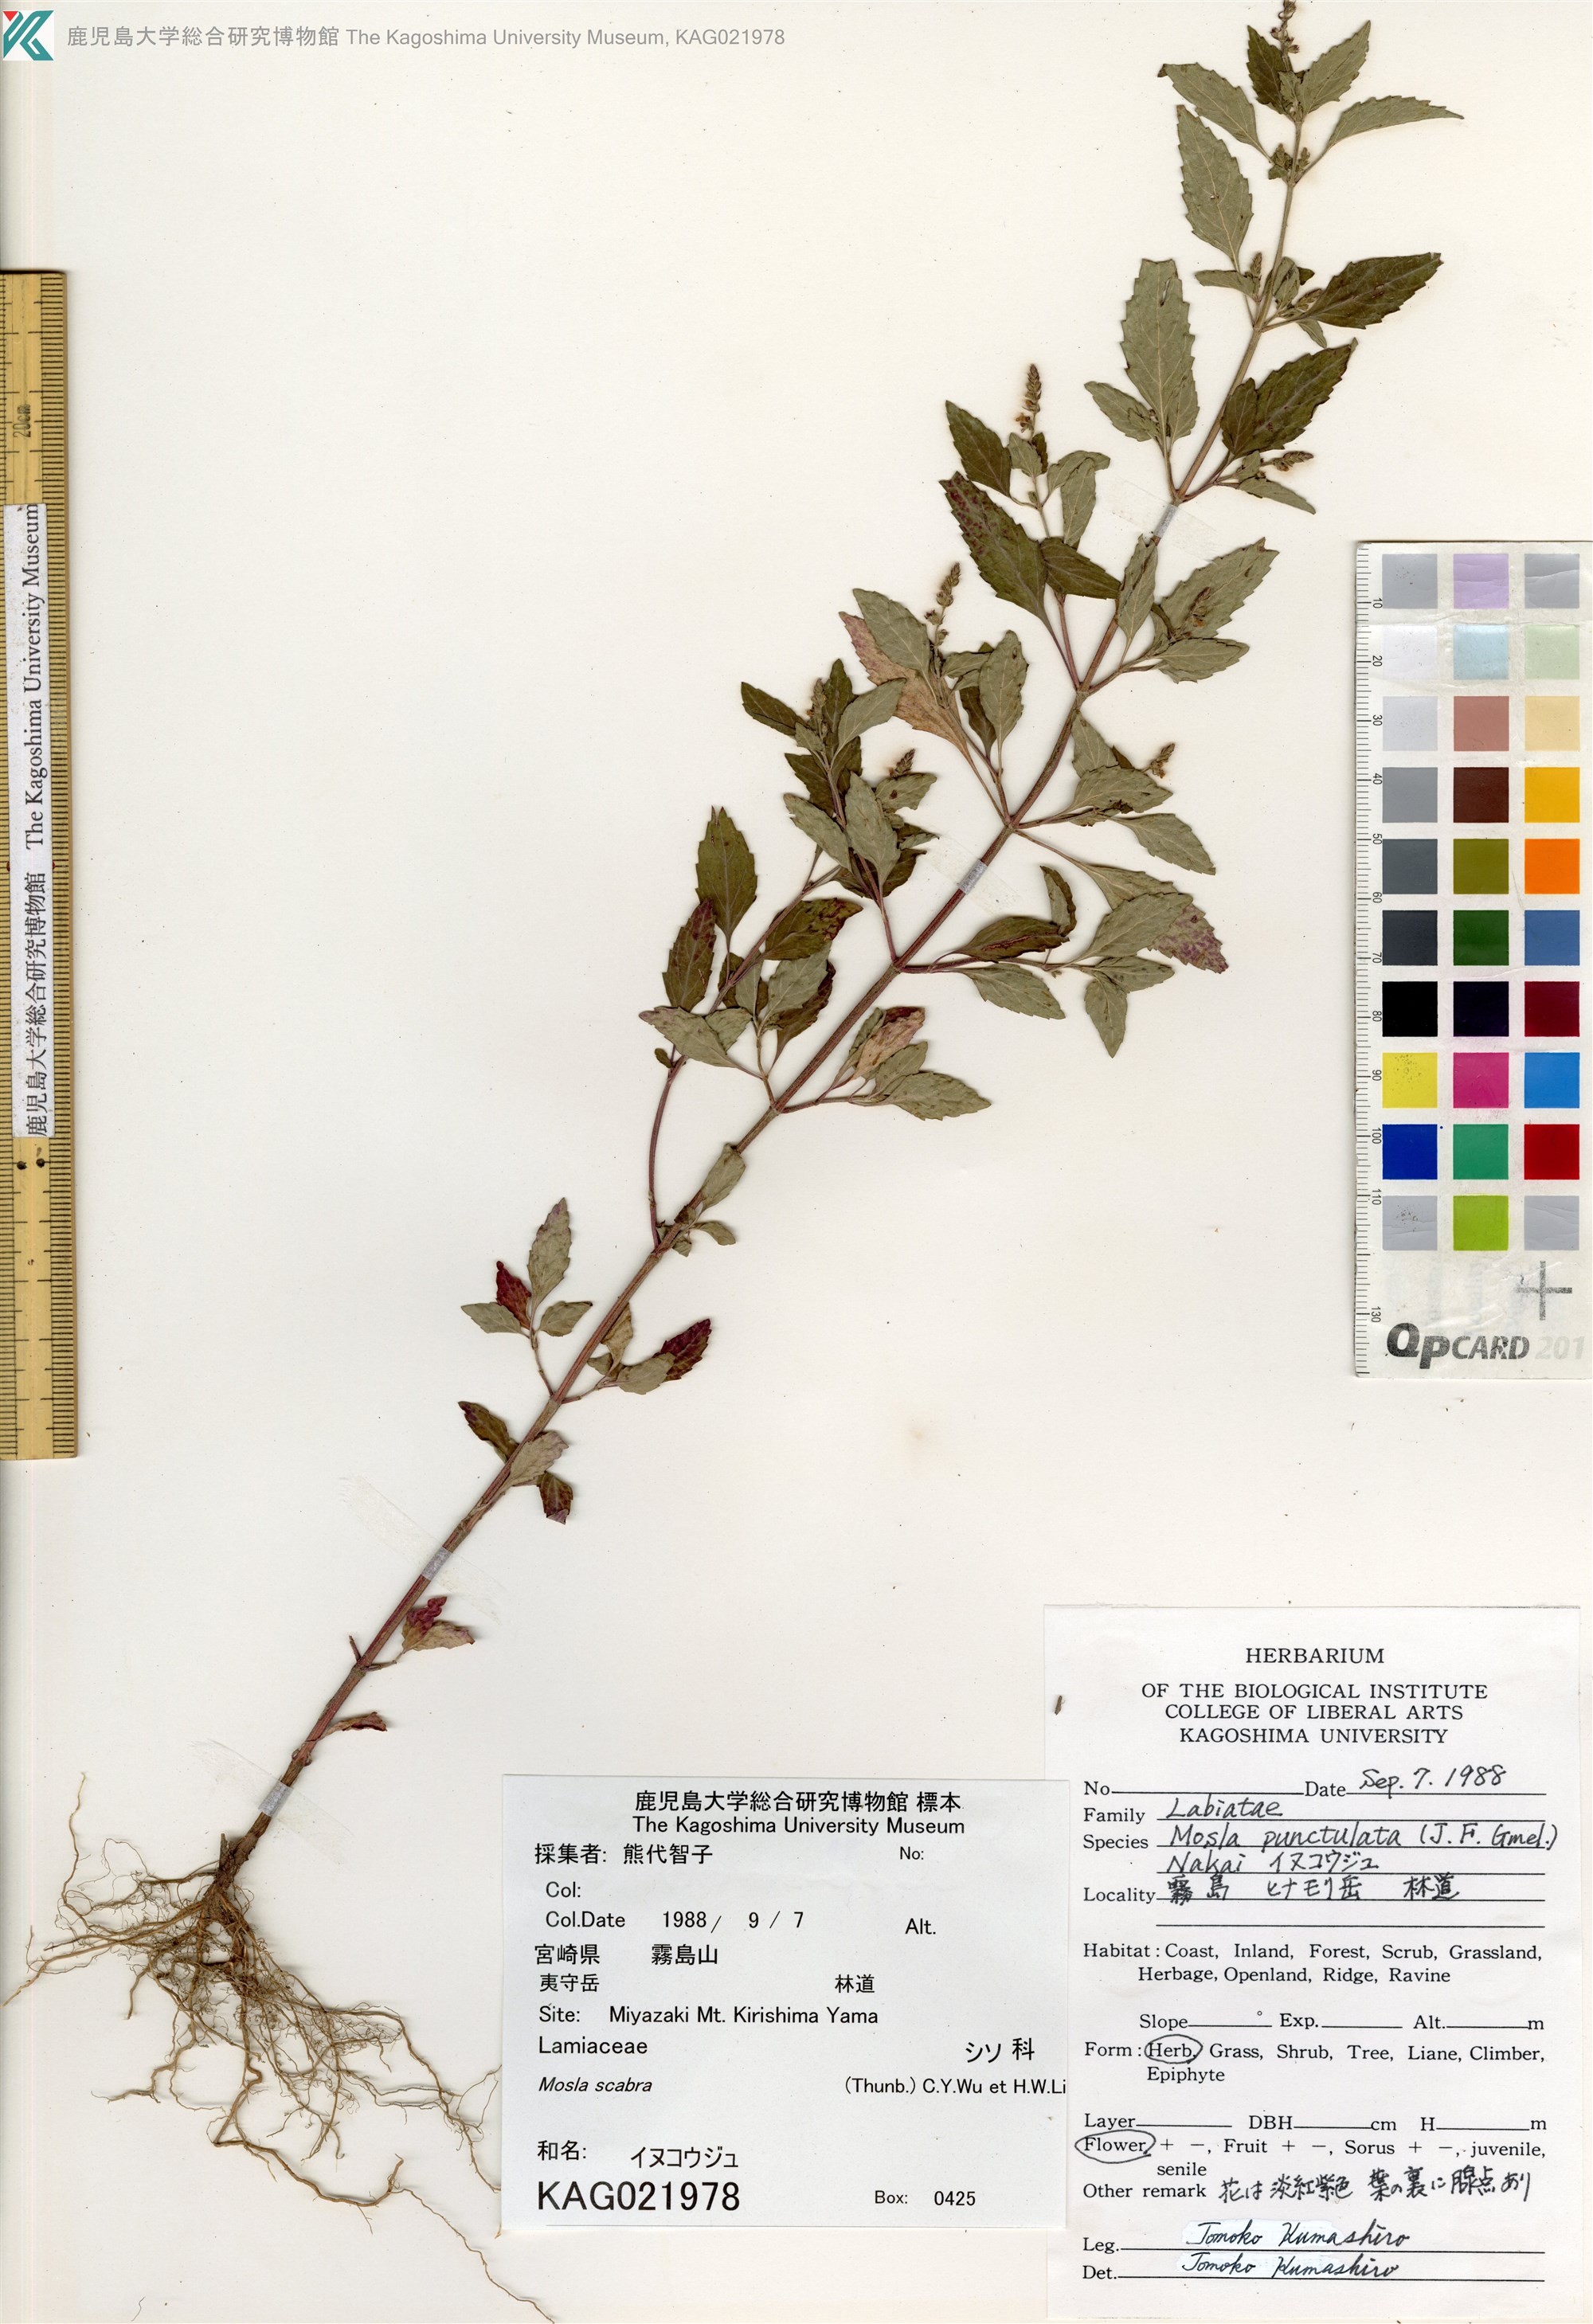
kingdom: Plantae
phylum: Tracheophyta
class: Magnoliopsida
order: Lamiales
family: Lamiaceae
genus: Mosla
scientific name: Mosla scabra
